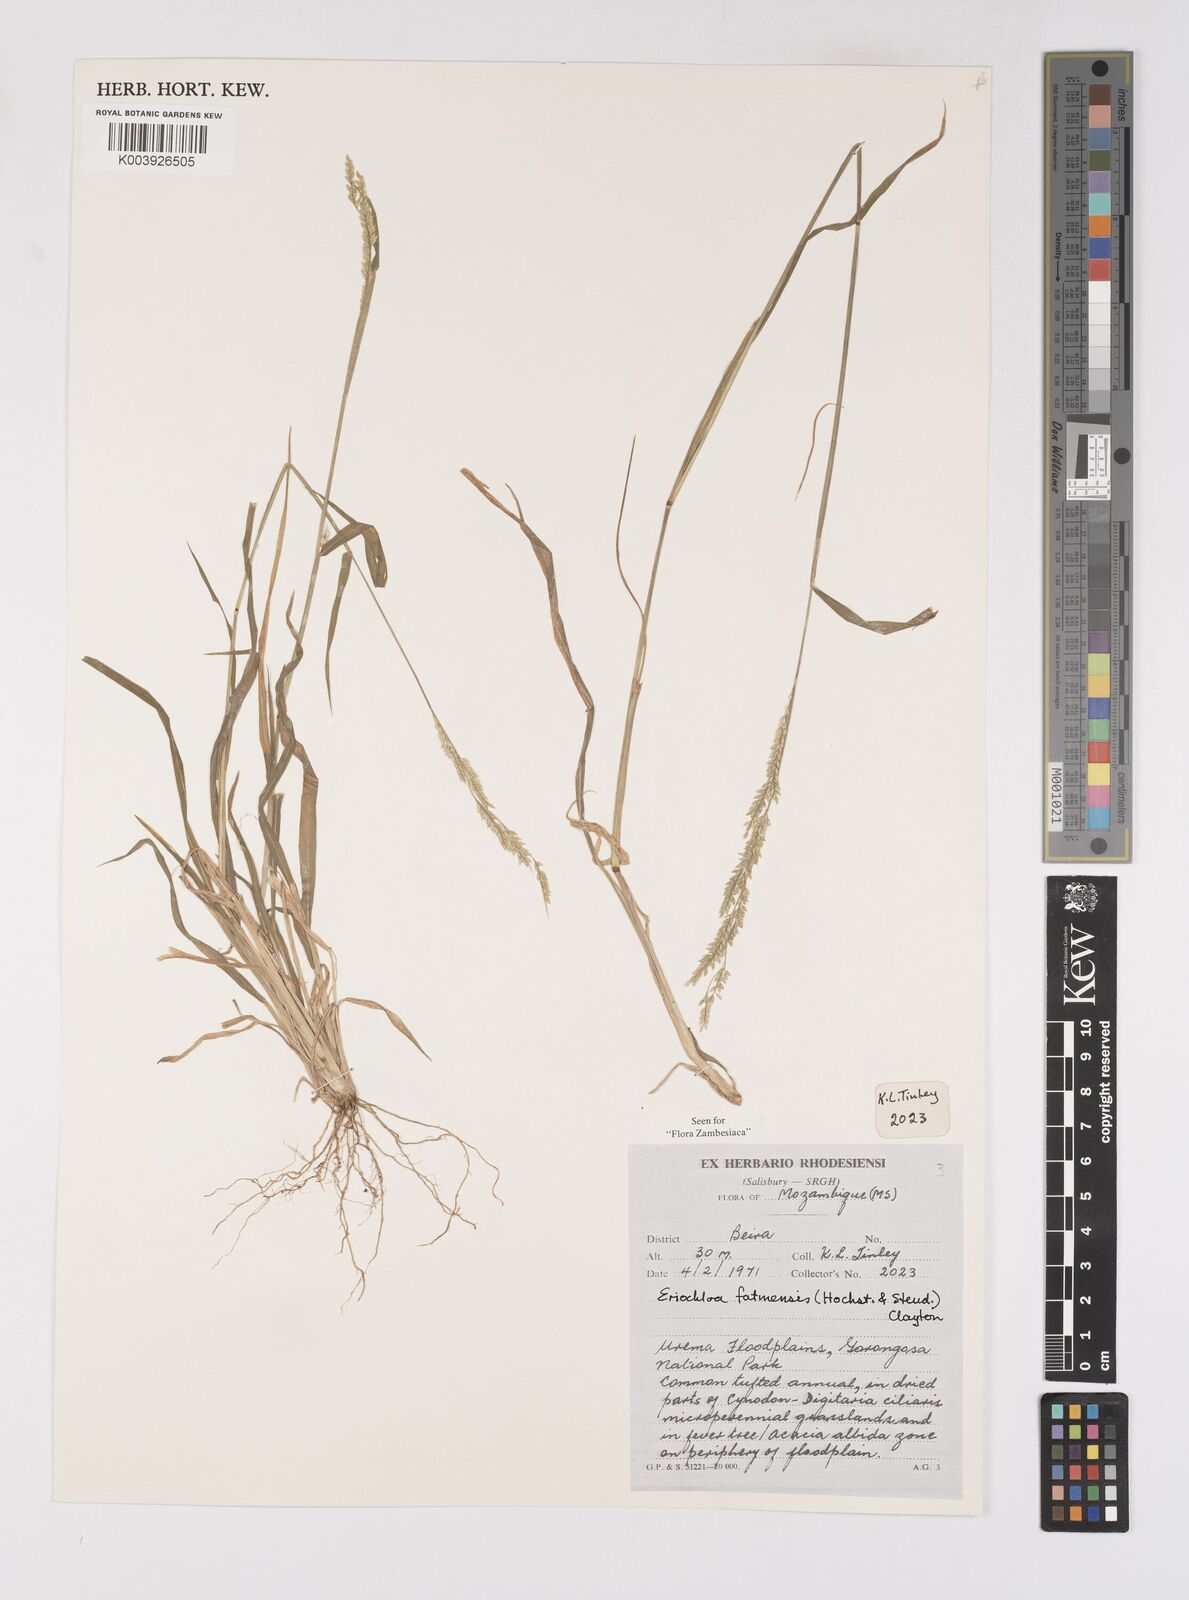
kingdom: Plantae
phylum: Tracheophyta
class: Liliopsida
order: Poales
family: Poaceae
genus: Eriochloa
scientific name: Eriochloa barbatus
